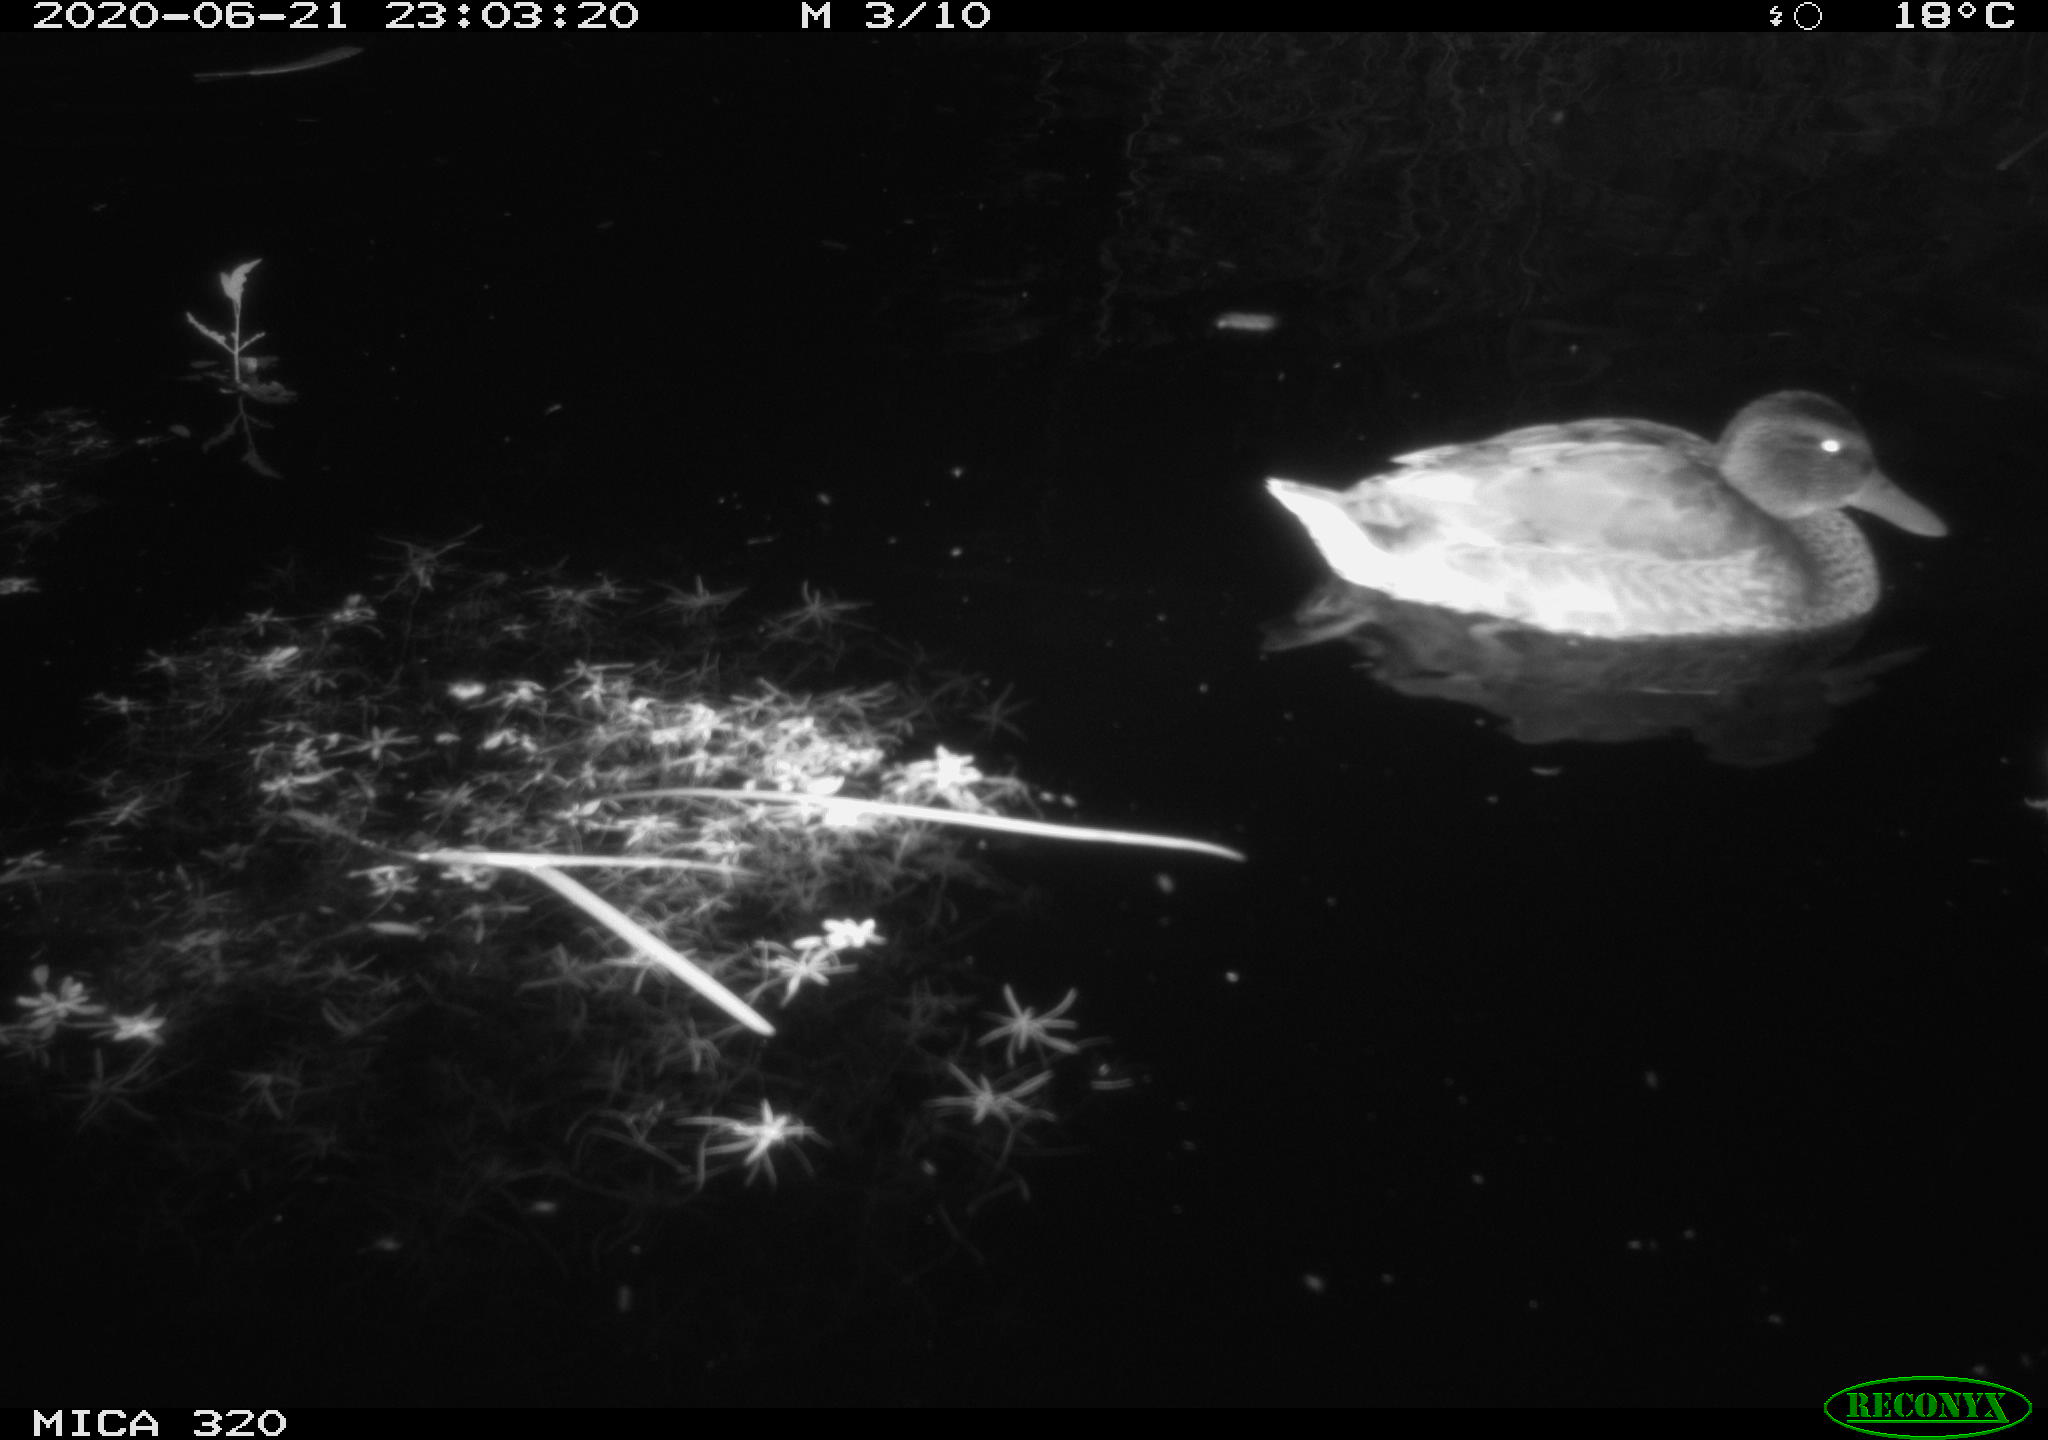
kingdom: Animalia
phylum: Chordata
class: Aves
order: Anseriformes
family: Anatidae
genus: Anas
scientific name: Anas platyrhynchos
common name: Mallard
